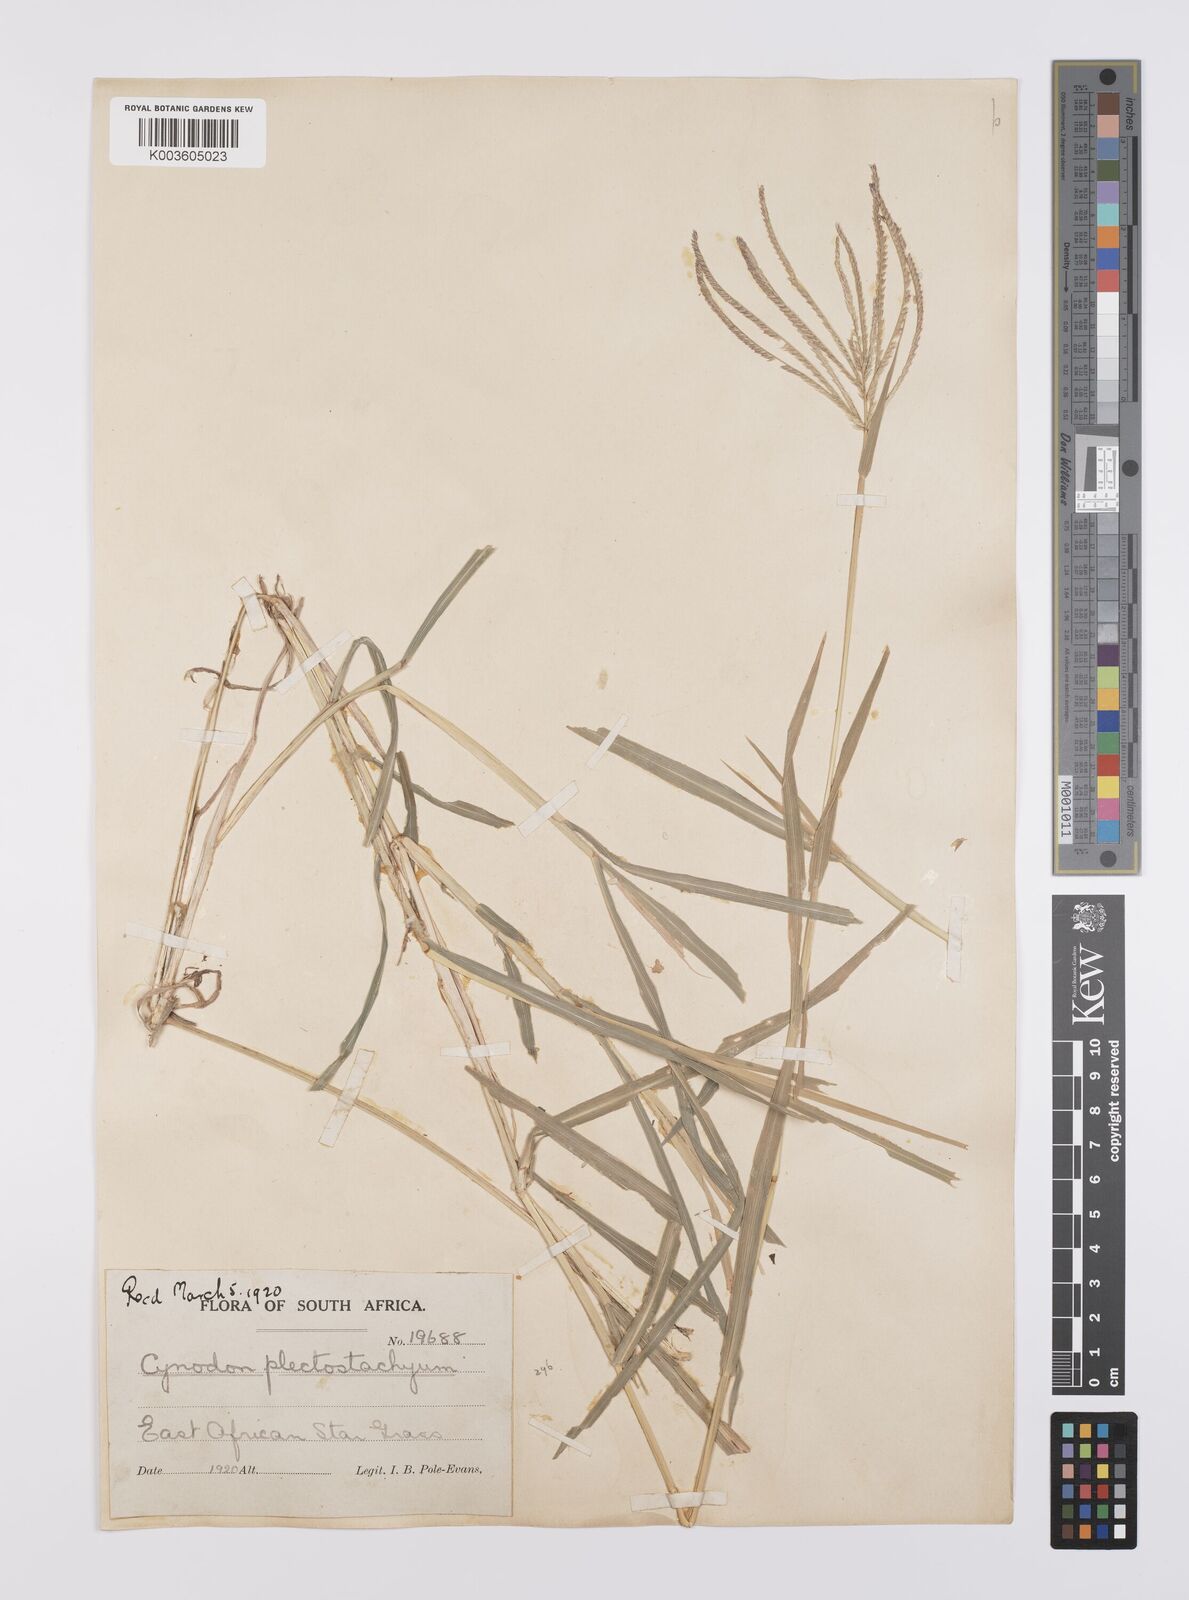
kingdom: Plantae
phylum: Tracheophyta
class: Liliopsida
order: Poales
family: Poaceae
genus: Cynodon
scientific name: Cynodon plectostachyus
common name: Stargrass
